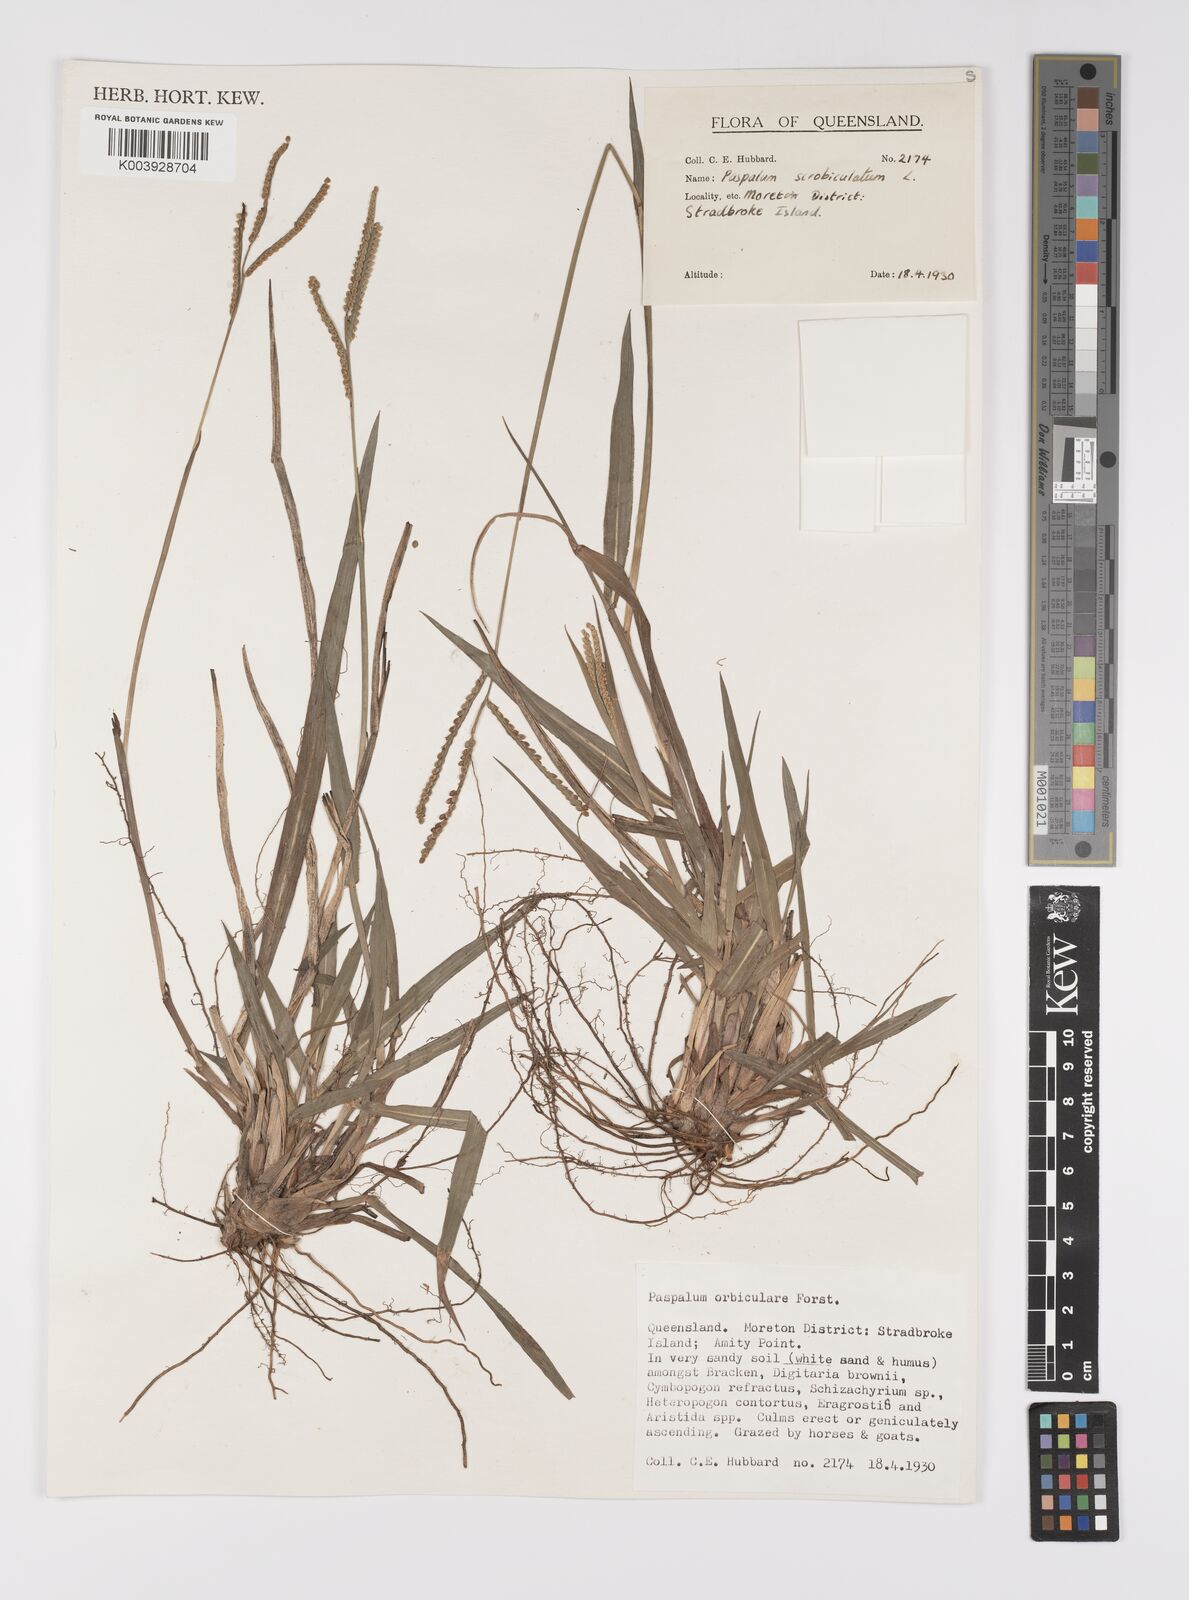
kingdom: Plantae
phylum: Tracheophyta
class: Liliopsida
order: Poales
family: Poaceae
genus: Paspalum
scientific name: Paspalum scrobiculatum
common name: Kodo millet
